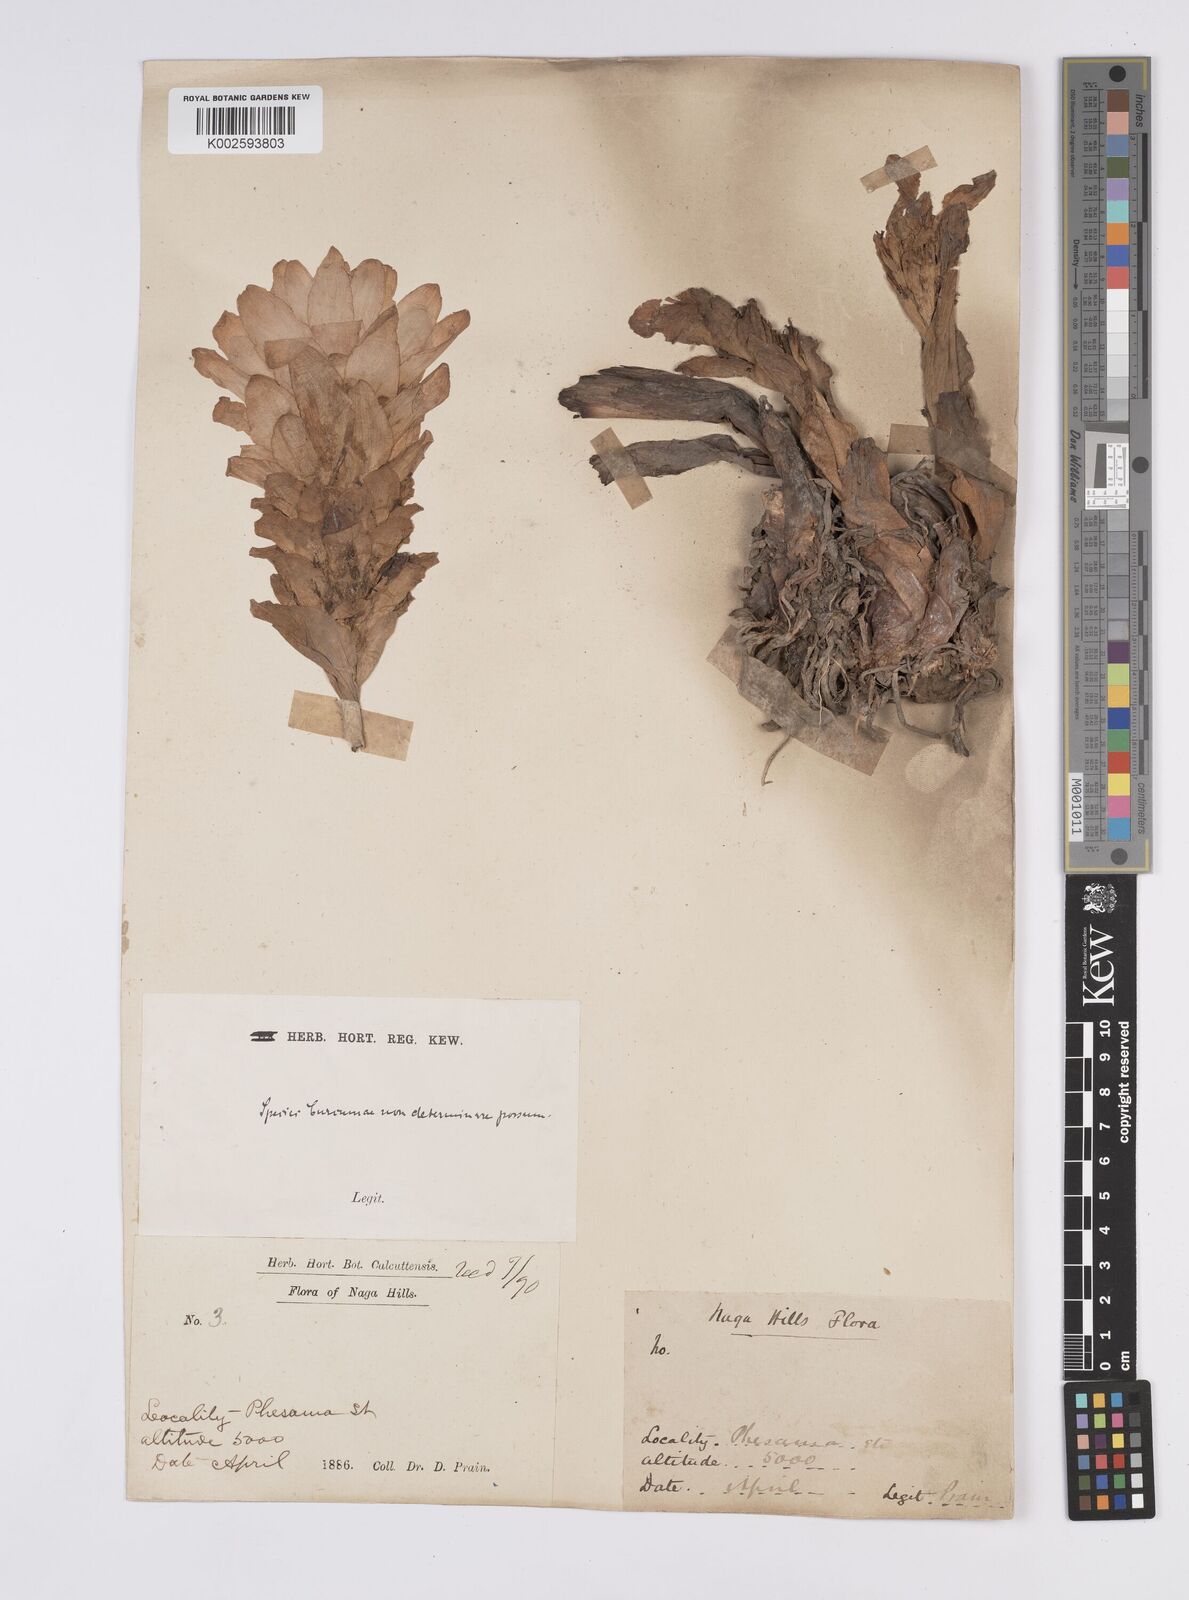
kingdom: Plantae
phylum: Tracheophyta
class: Liliopsida
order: Zingiberales
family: Zingiberaceae
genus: Curcuma
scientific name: Curcuma
